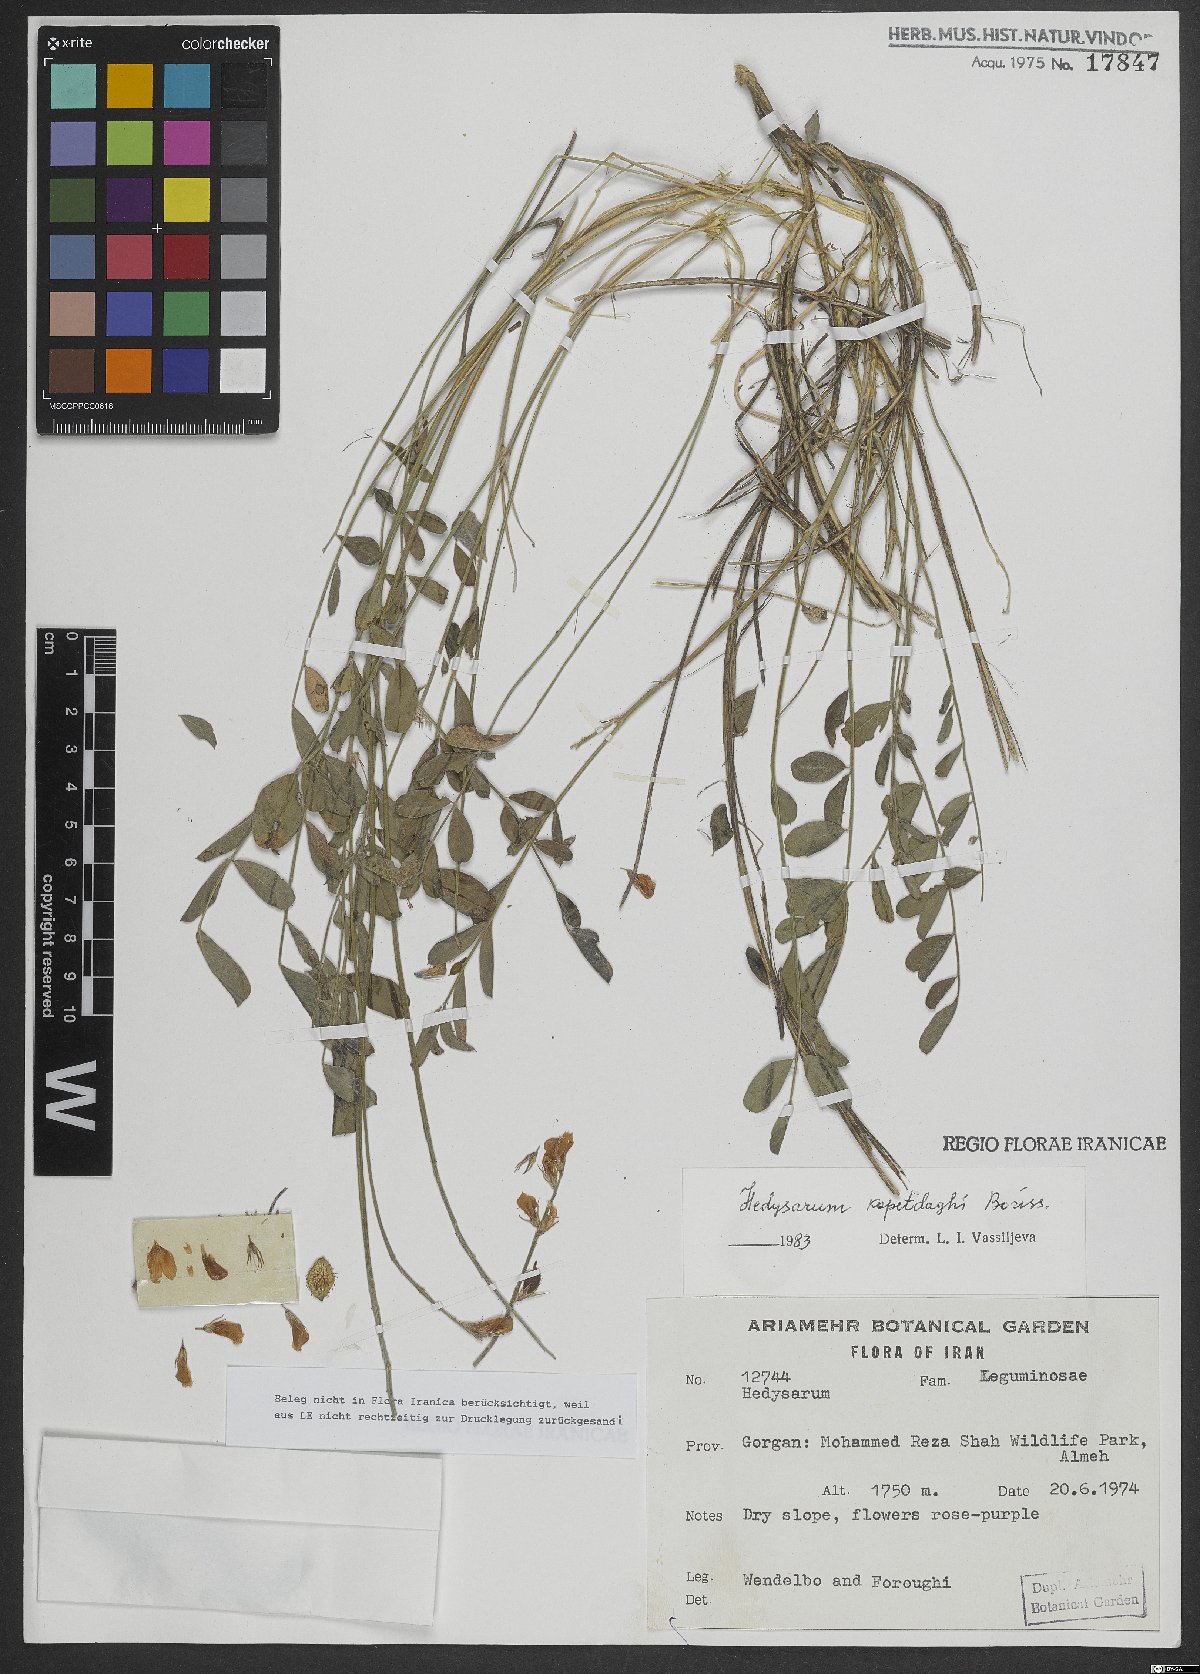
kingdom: Plantae
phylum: Tracheophyta
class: Magnoliopsida
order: Fabales
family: Fabaceae
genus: Hedysarum
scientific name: Hedysarum kopetdaghi
